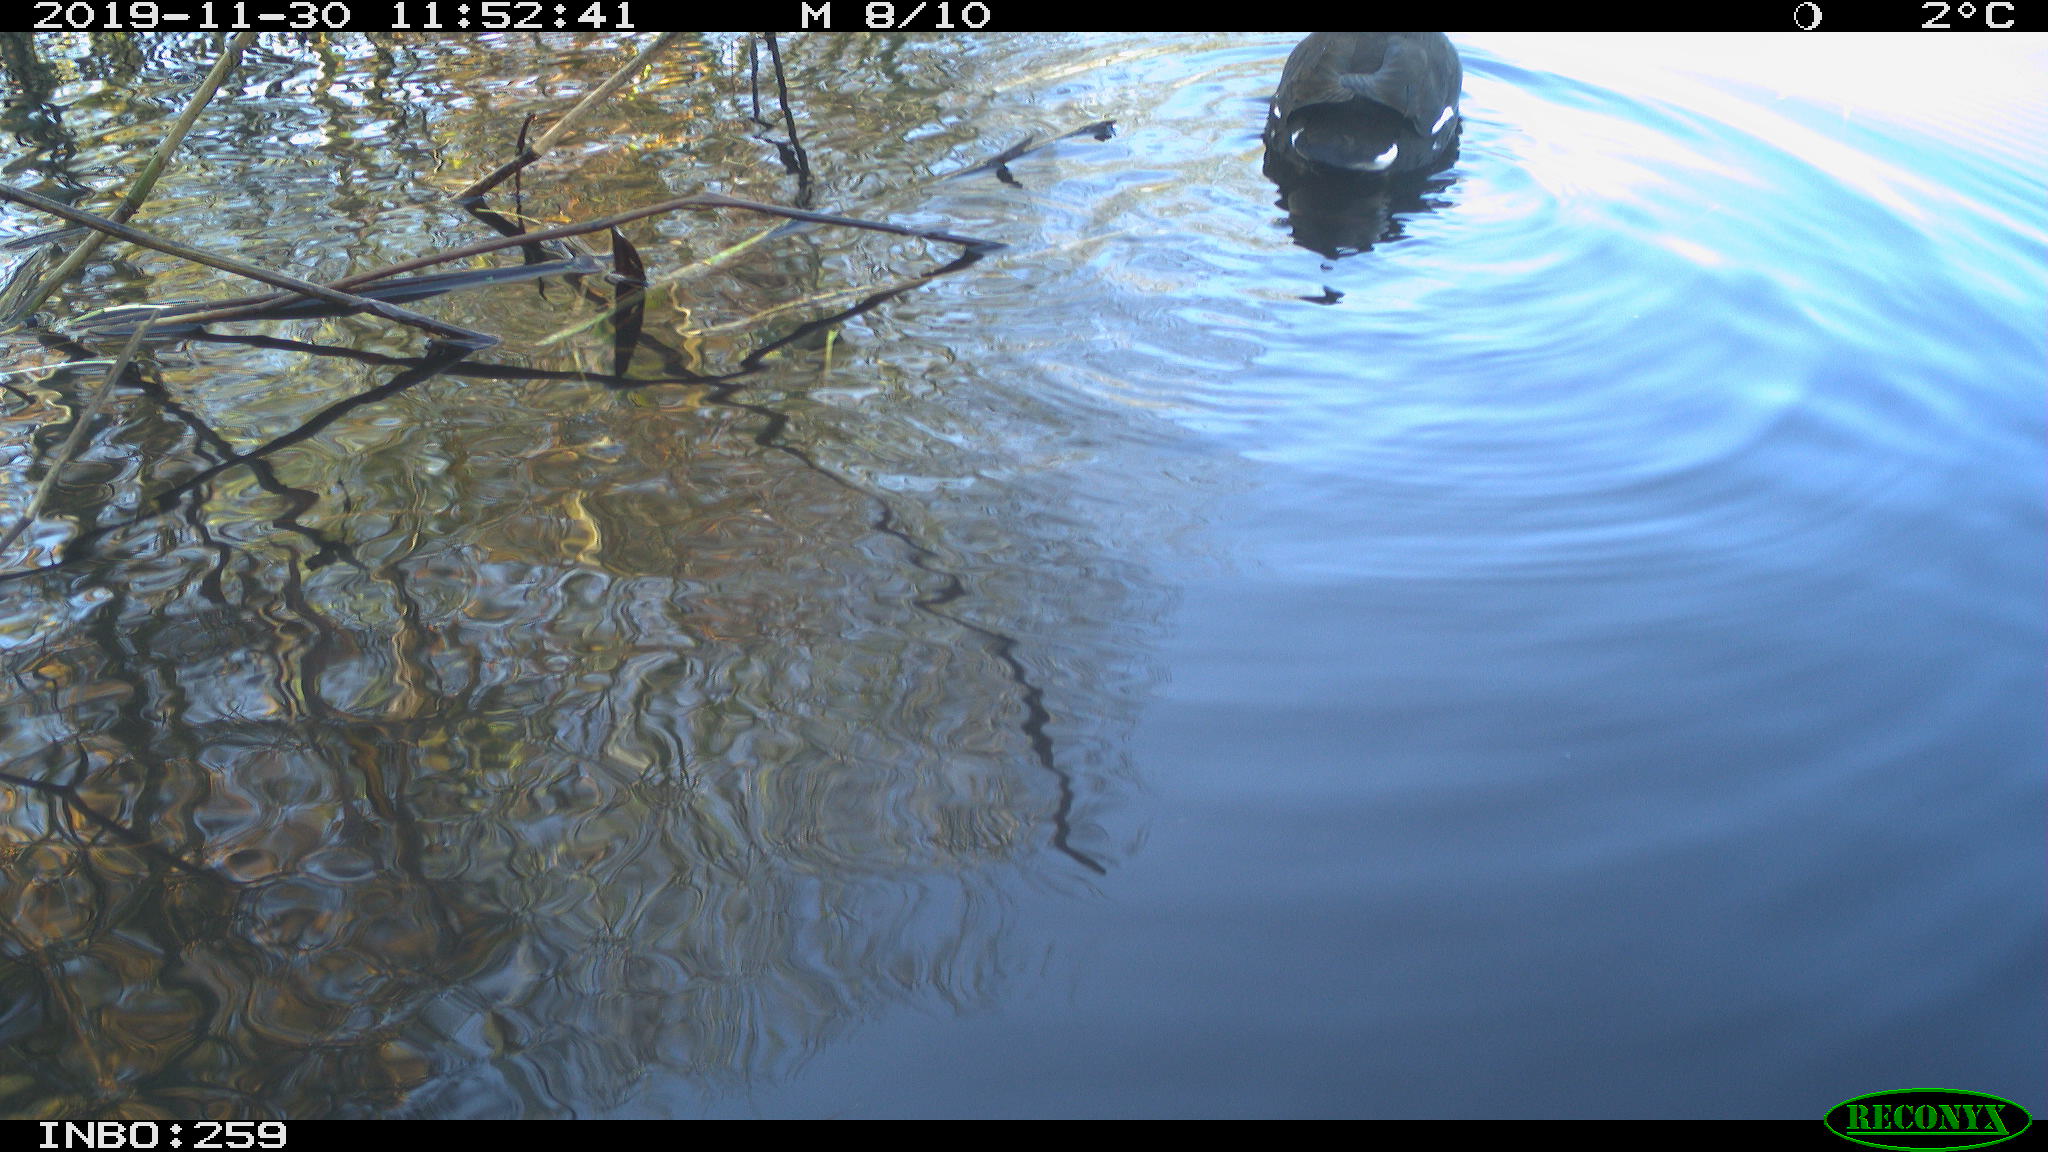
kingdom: Animalia
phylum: Chordata
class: Aves
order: Gruiformes
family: Rallidae
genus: Gallinula
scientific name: Gallinula chloropus
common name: Common moorhen
